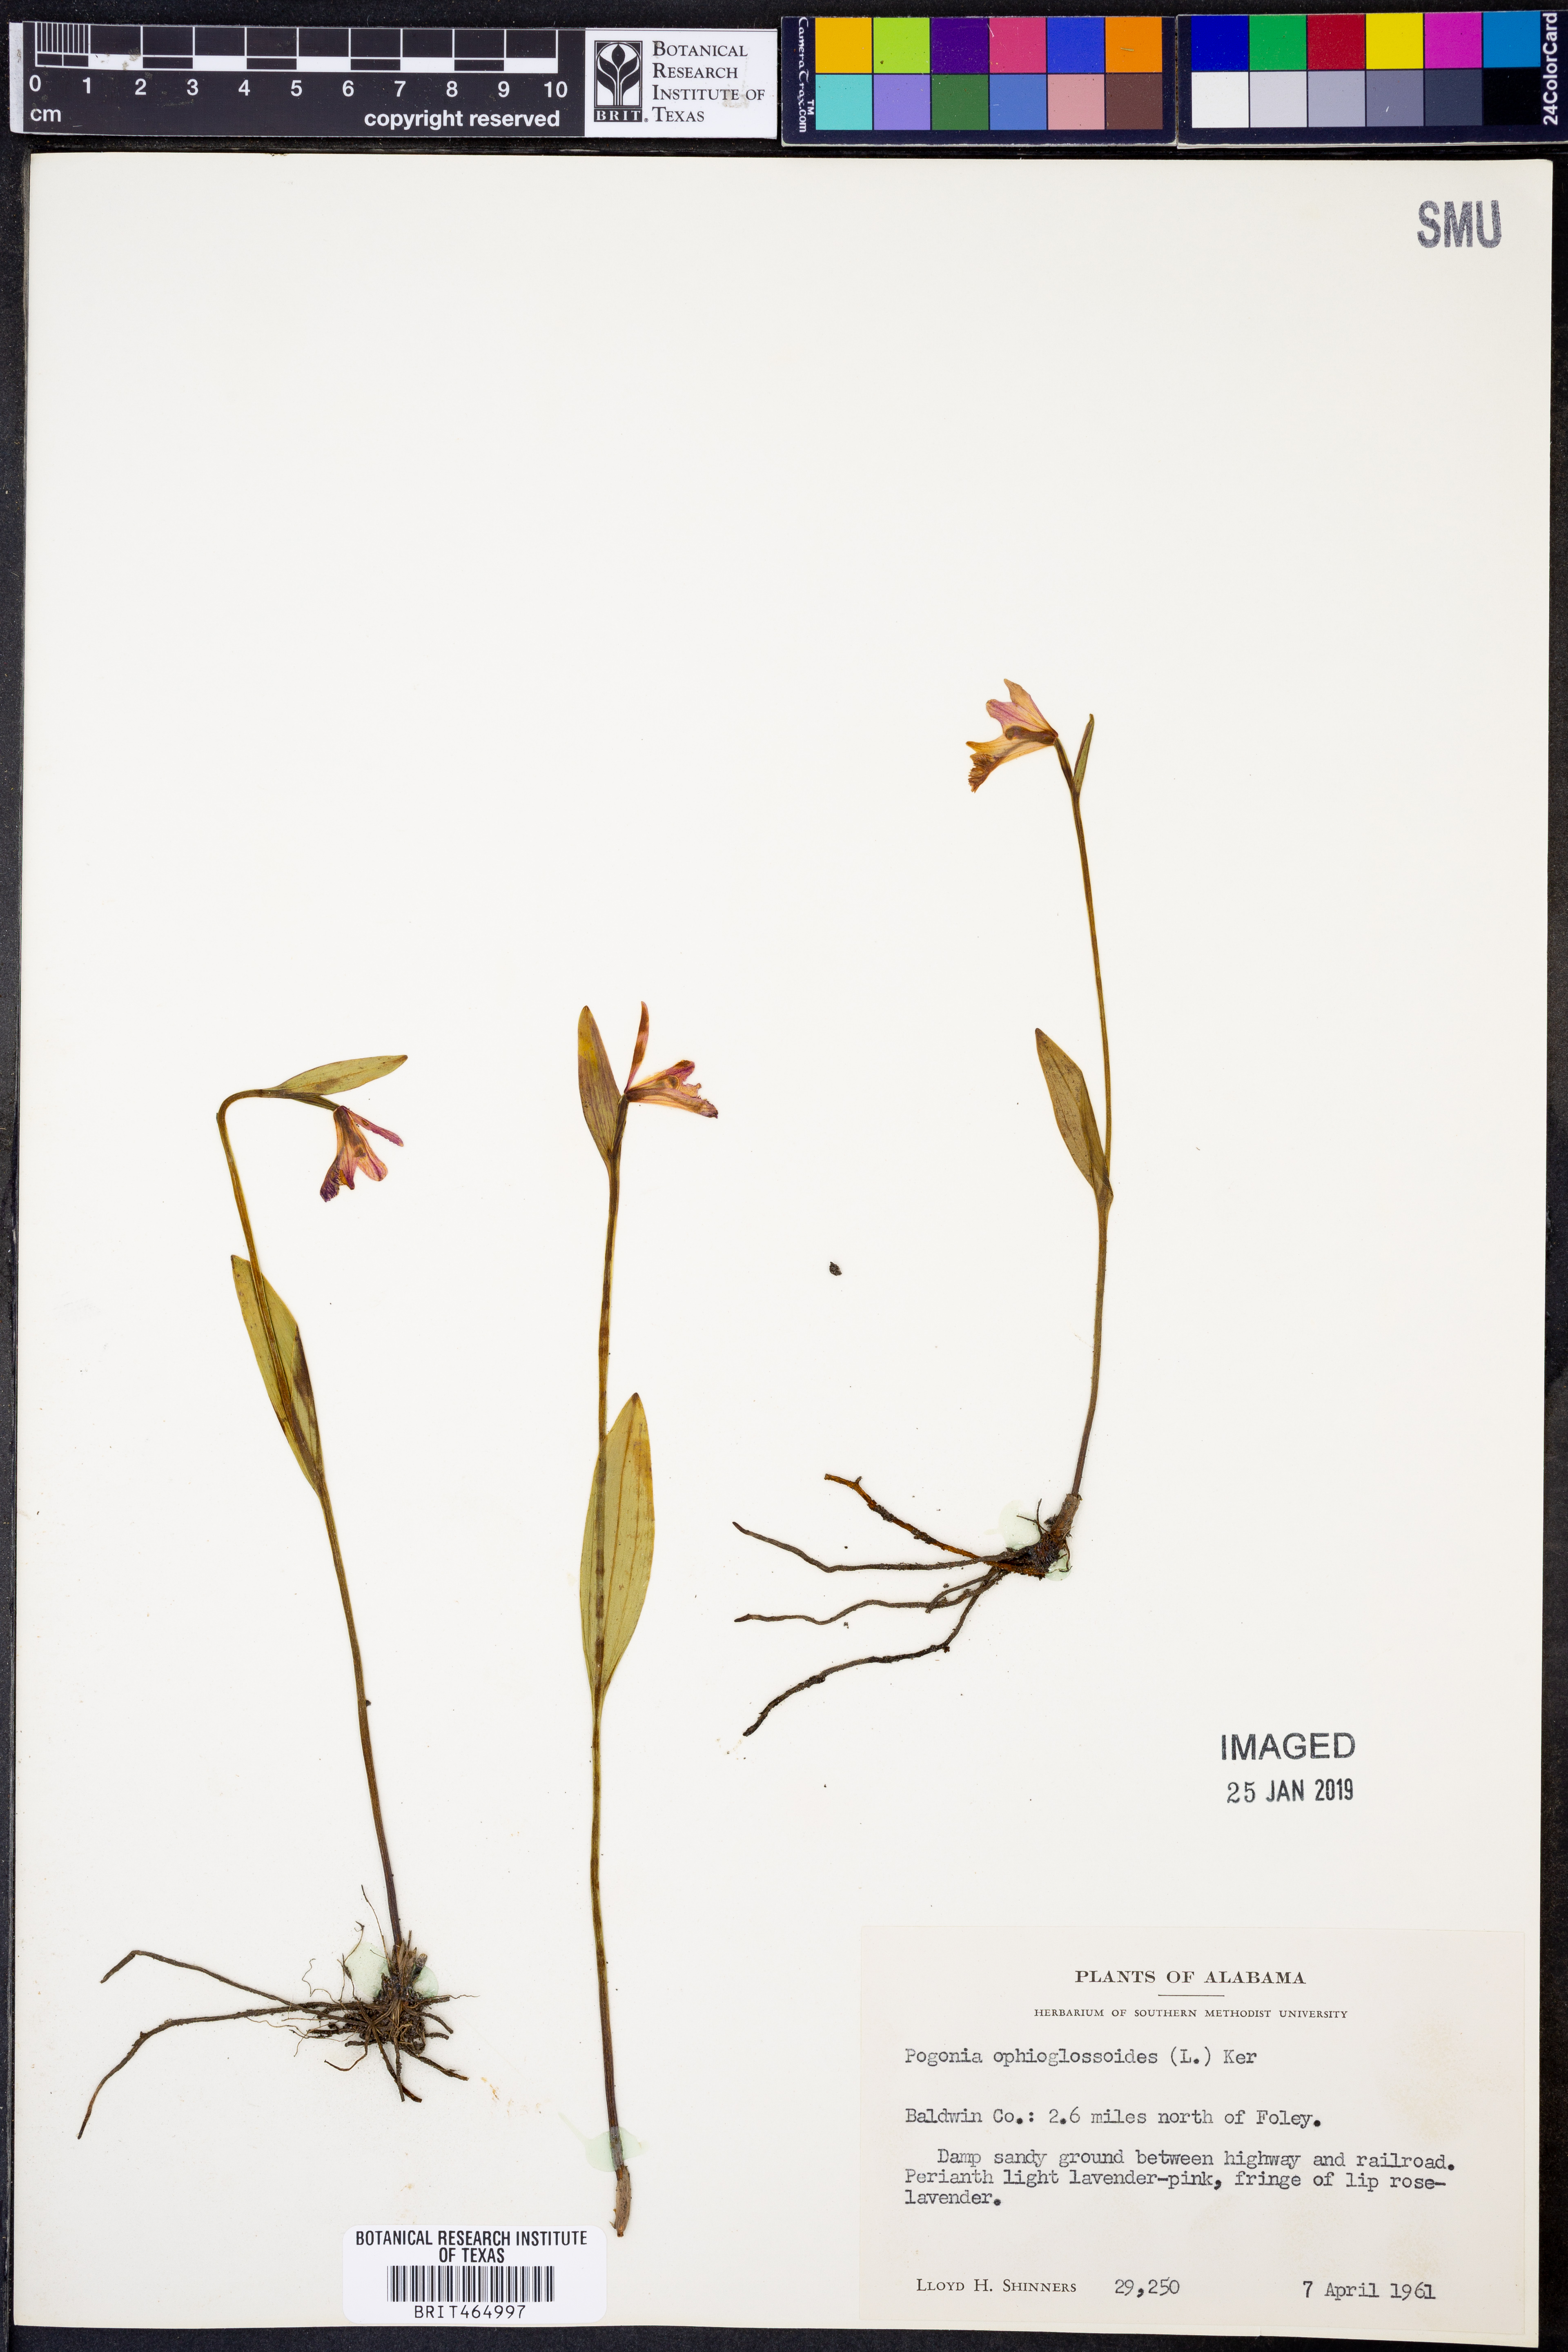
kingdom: Plantae
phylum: Tracheophyta
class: Liliopsida
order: Asparagales
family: Orchidaceae
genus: Pogonia
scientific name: Pogonia ophioglossoides
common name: Rose pogonia
